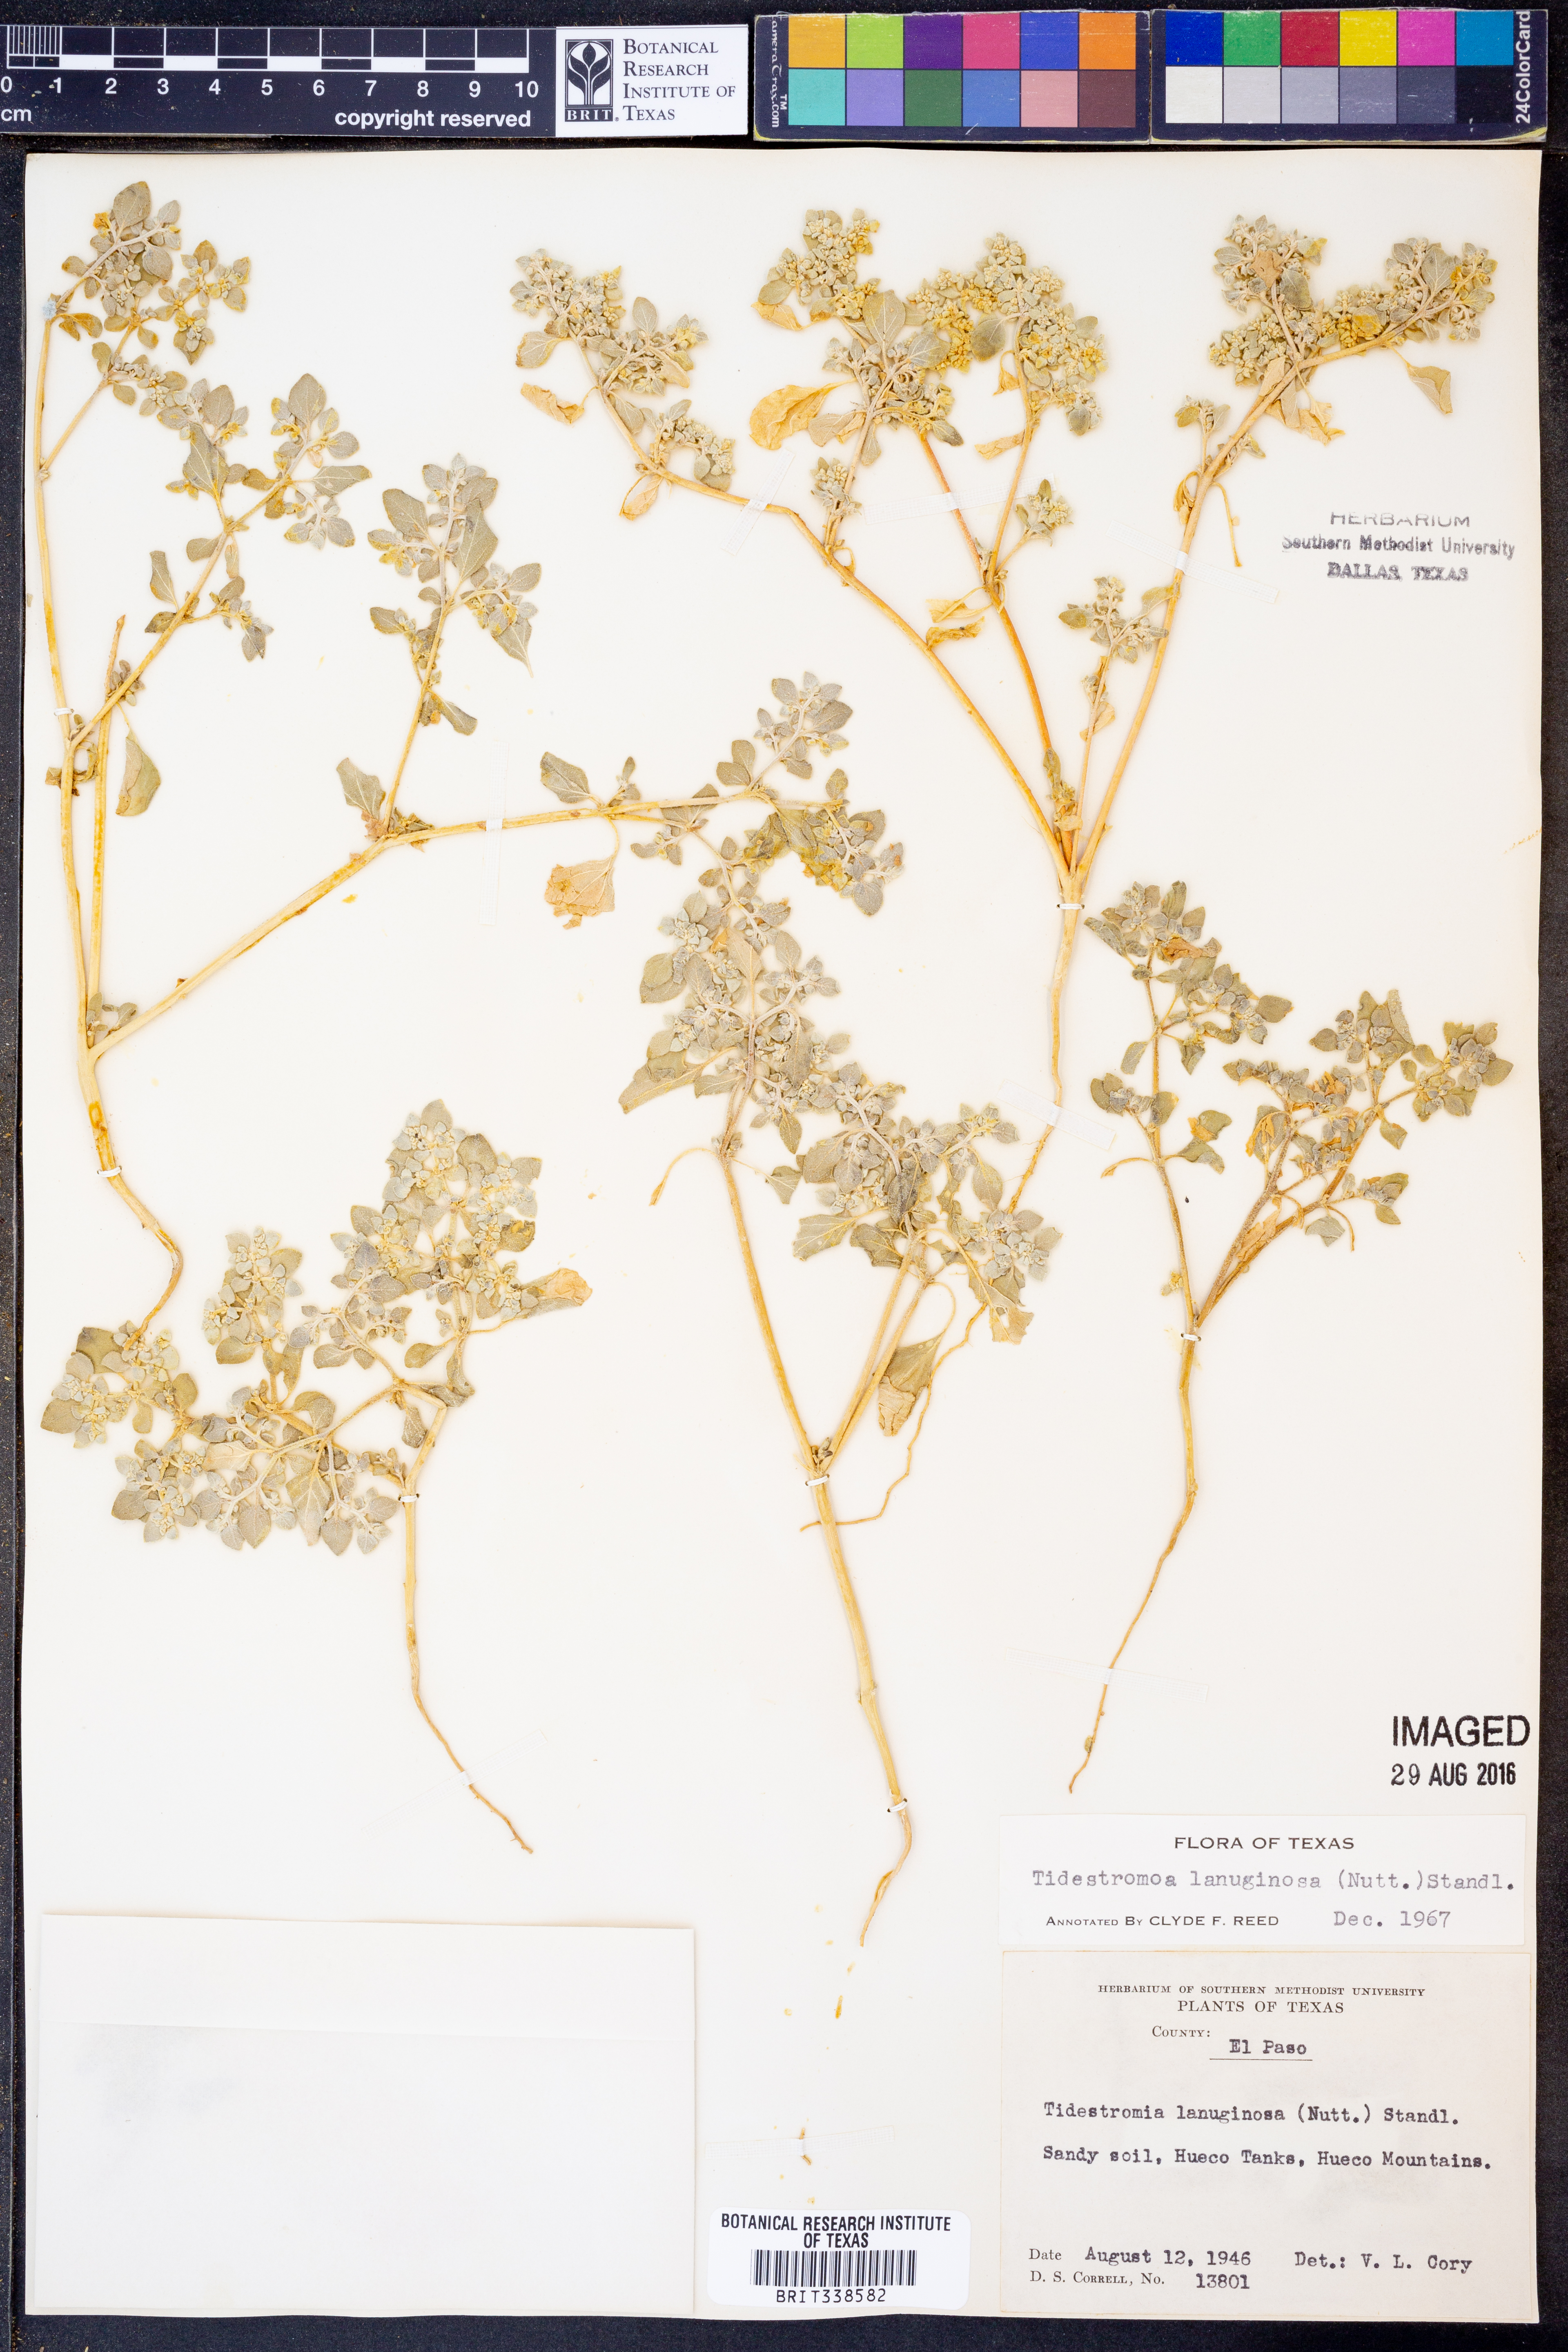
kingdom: Plantae
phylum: Tracheophyta
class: Magnoliopsida
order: Caryophyllales
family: Amaranthaceae
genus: Tidestromia
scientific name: Tidestromia lanuginosa
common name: Woolly tidestromia
